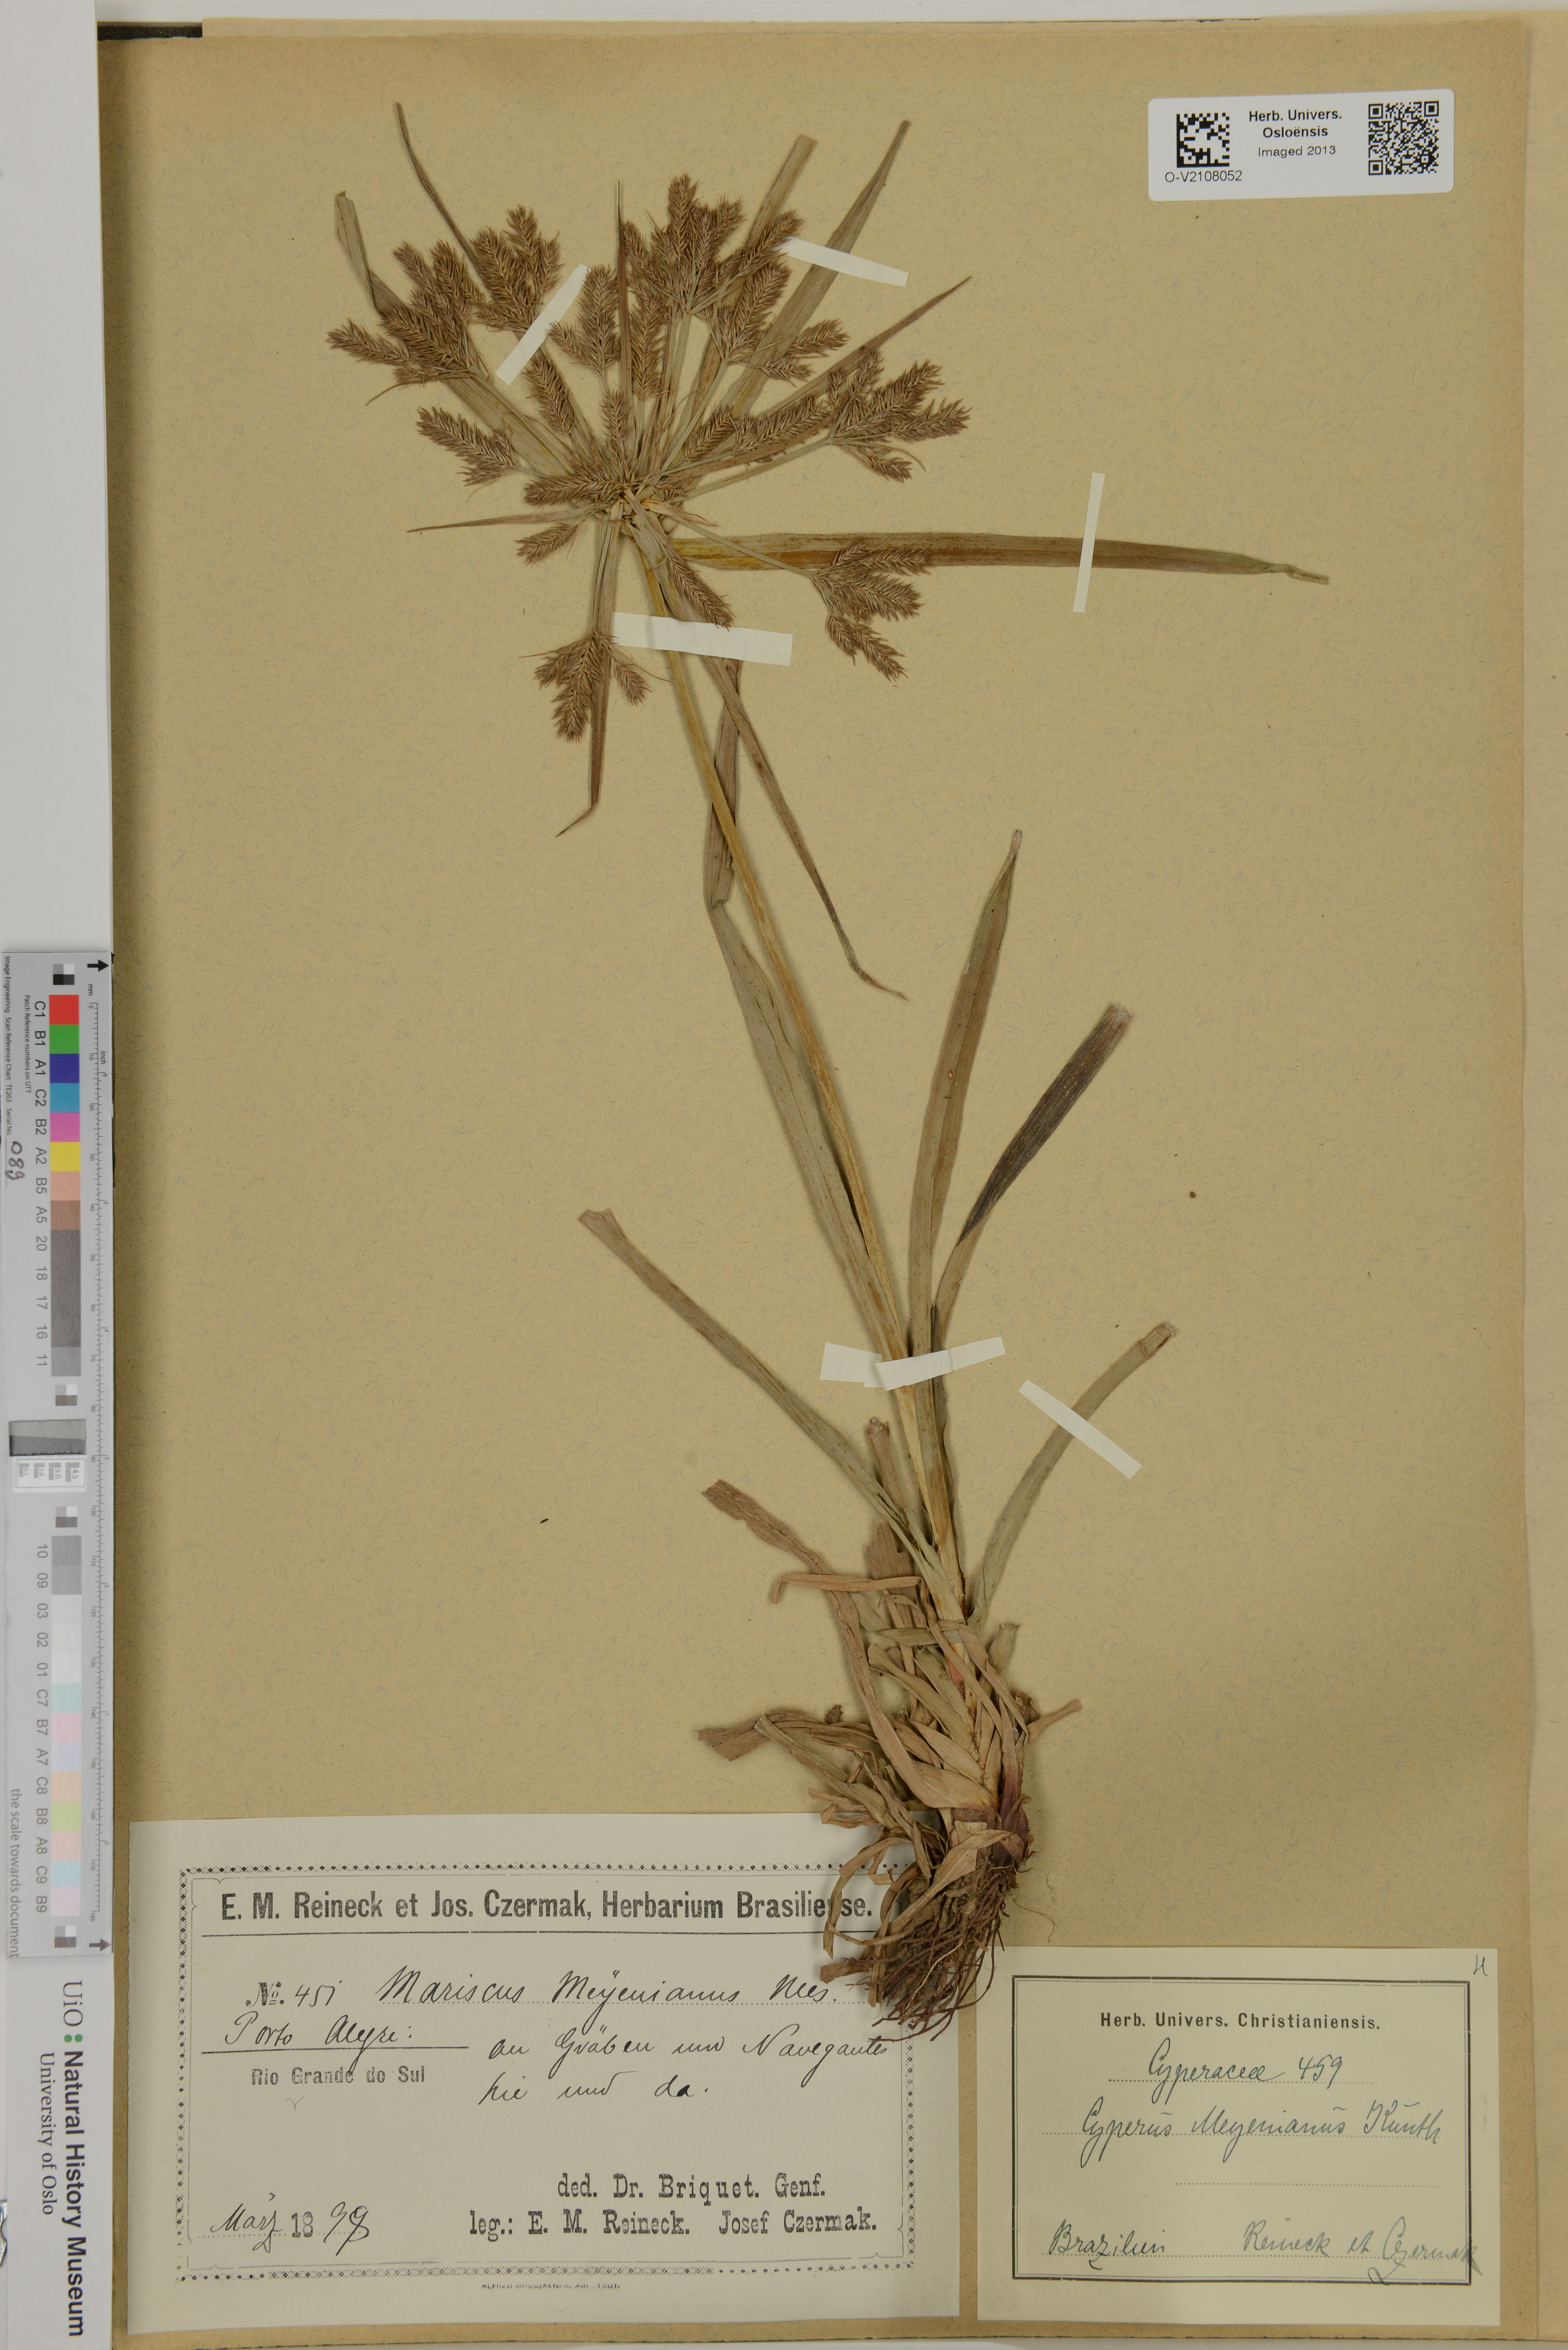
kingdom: Plantae
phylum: Tracheophyta
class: Liliopsida
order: Poales
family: Cyperaceae
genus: Cyperus
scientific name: Cyperus meyenianus
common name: Meyen's flatsedge
